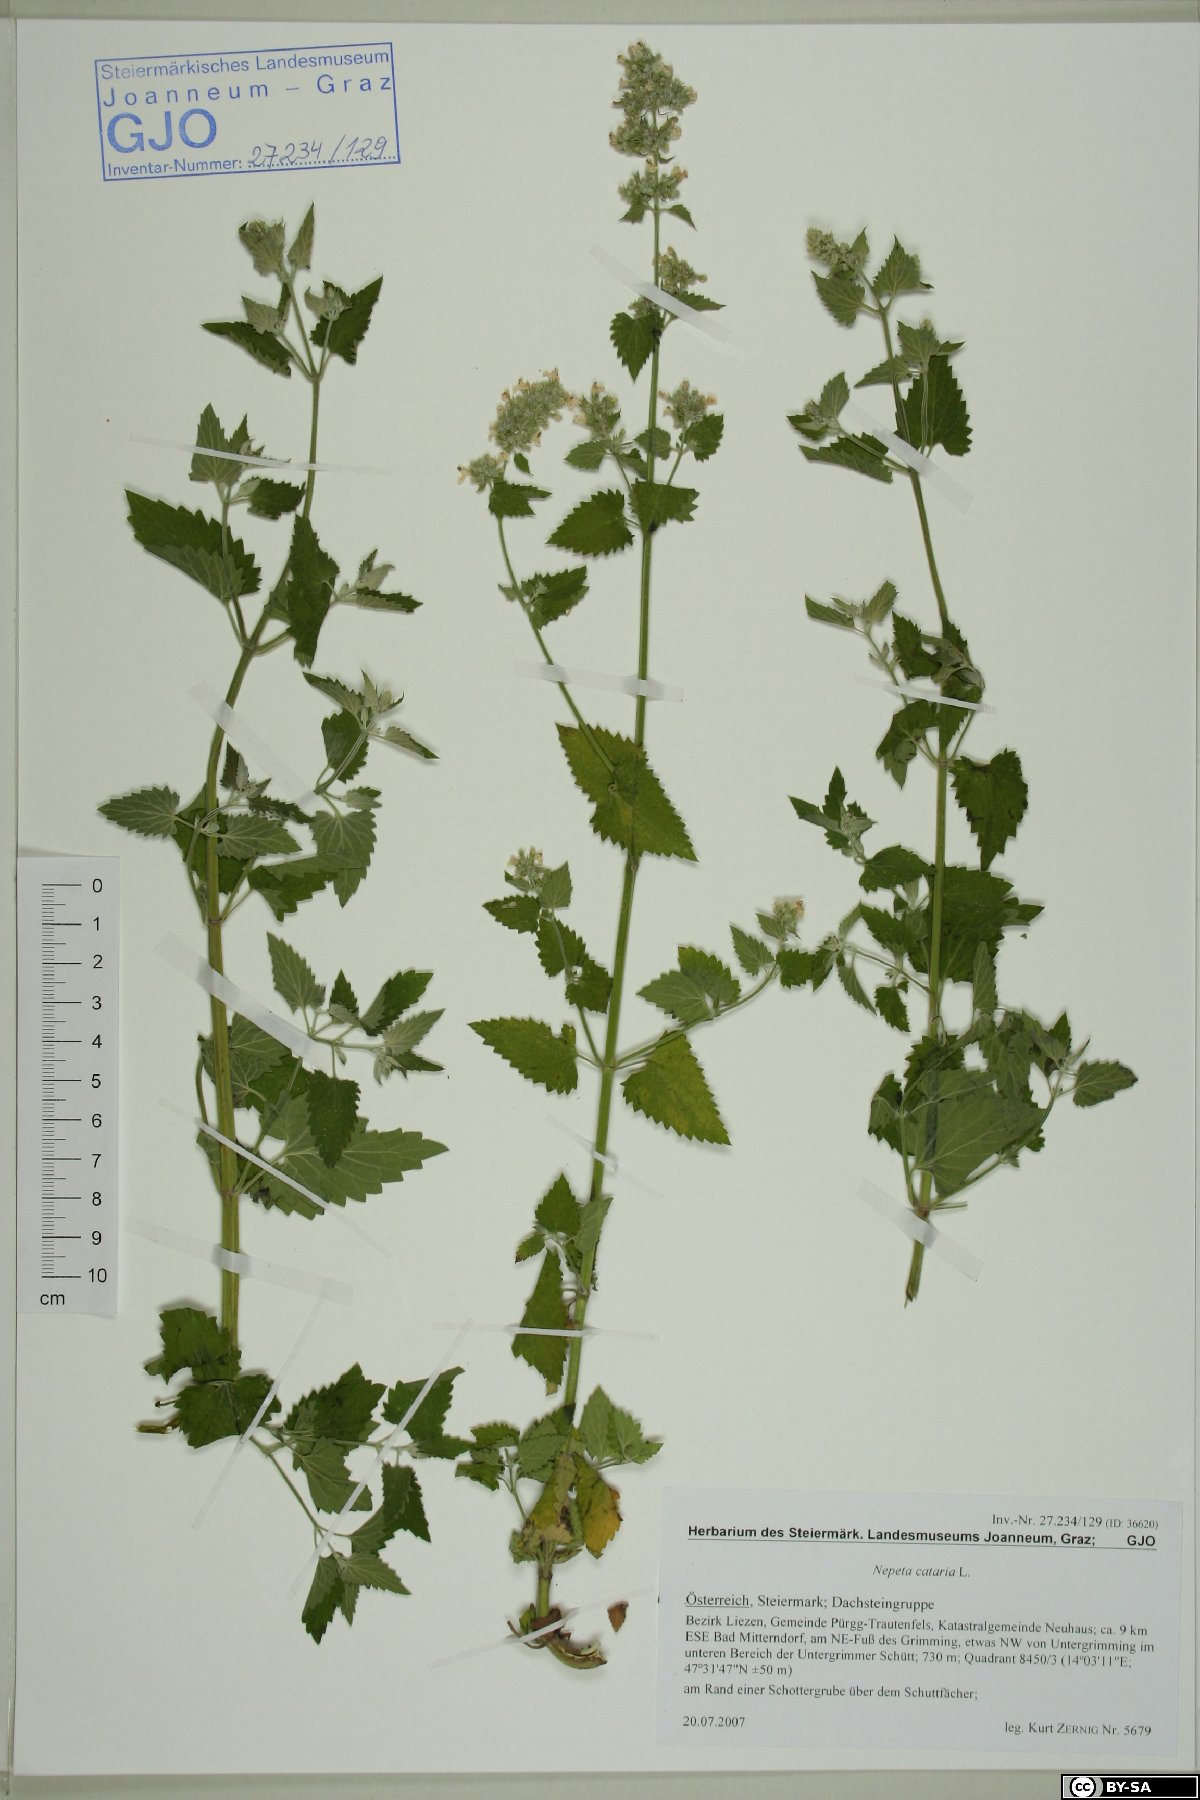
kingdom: Plantae
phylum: Tracheophyta
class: Magnoliopsida
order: Lamiales
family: Lamiaceae
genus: Nepeta
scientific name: Nepeta cataria
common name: Catnip
